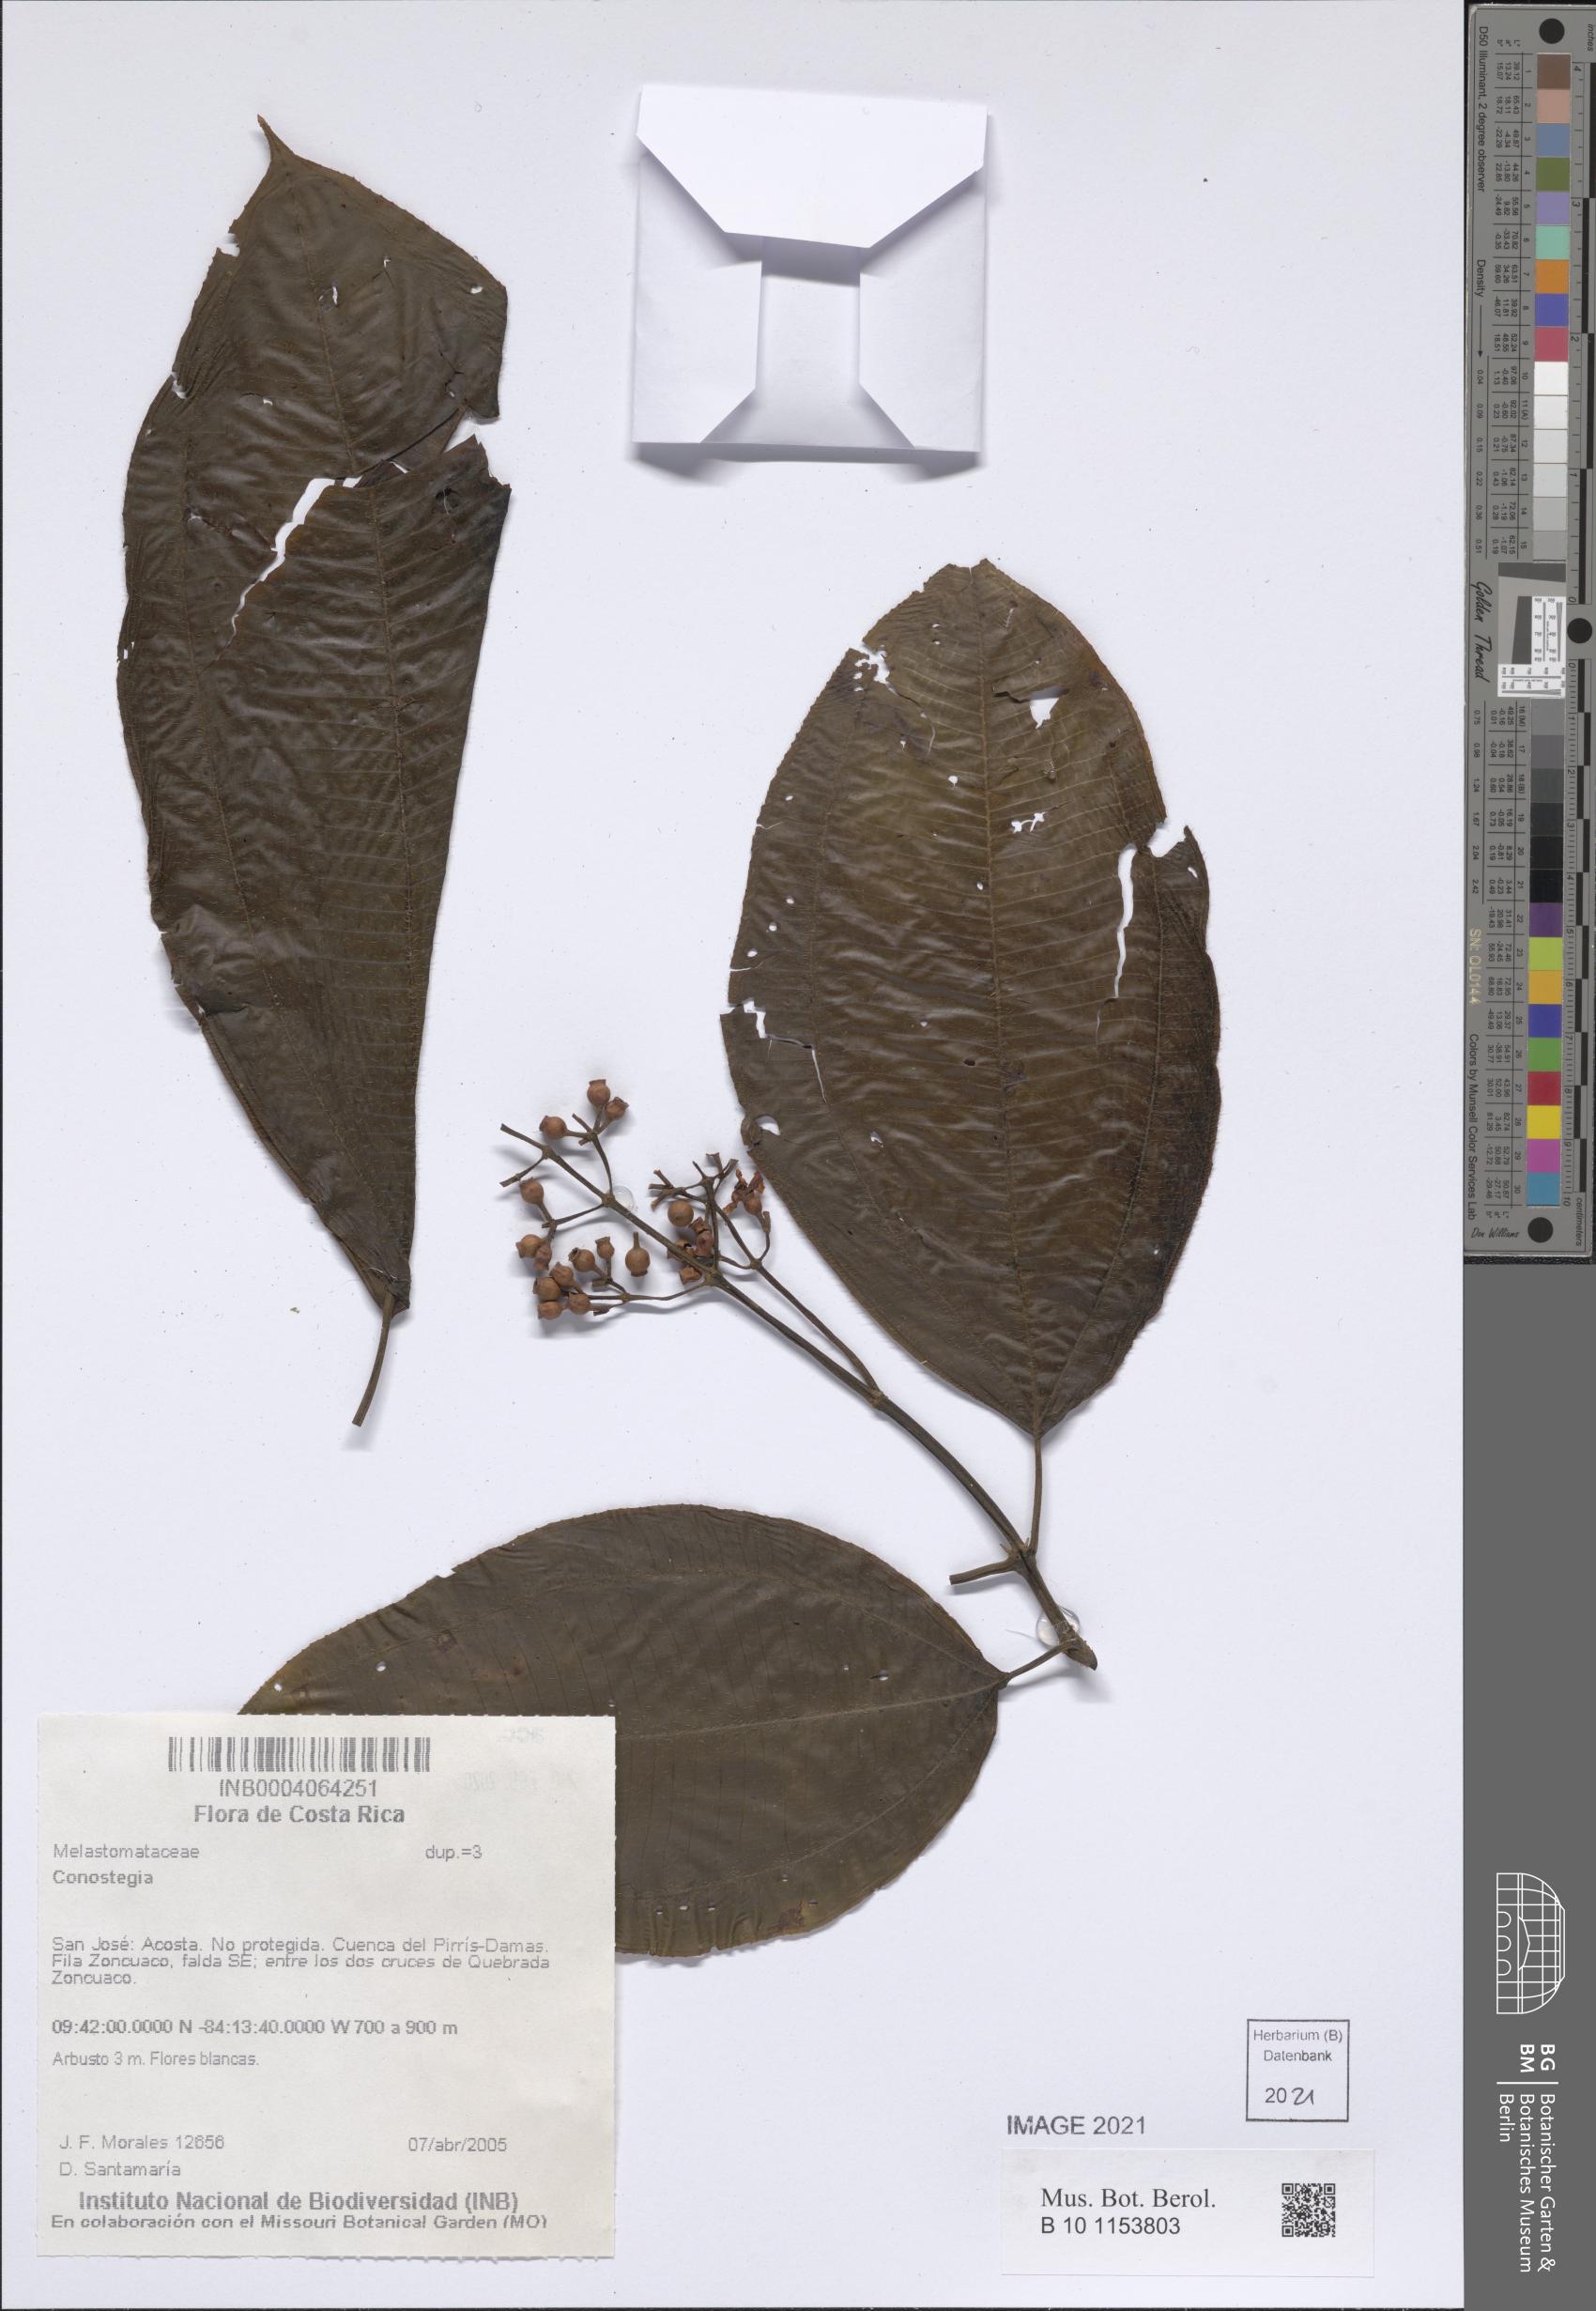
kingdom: Plantae
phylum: Tracheophyta
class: Magnoliopsida
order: Myrtales
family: Melastomataceae
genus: Miconia
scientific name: Miconia
